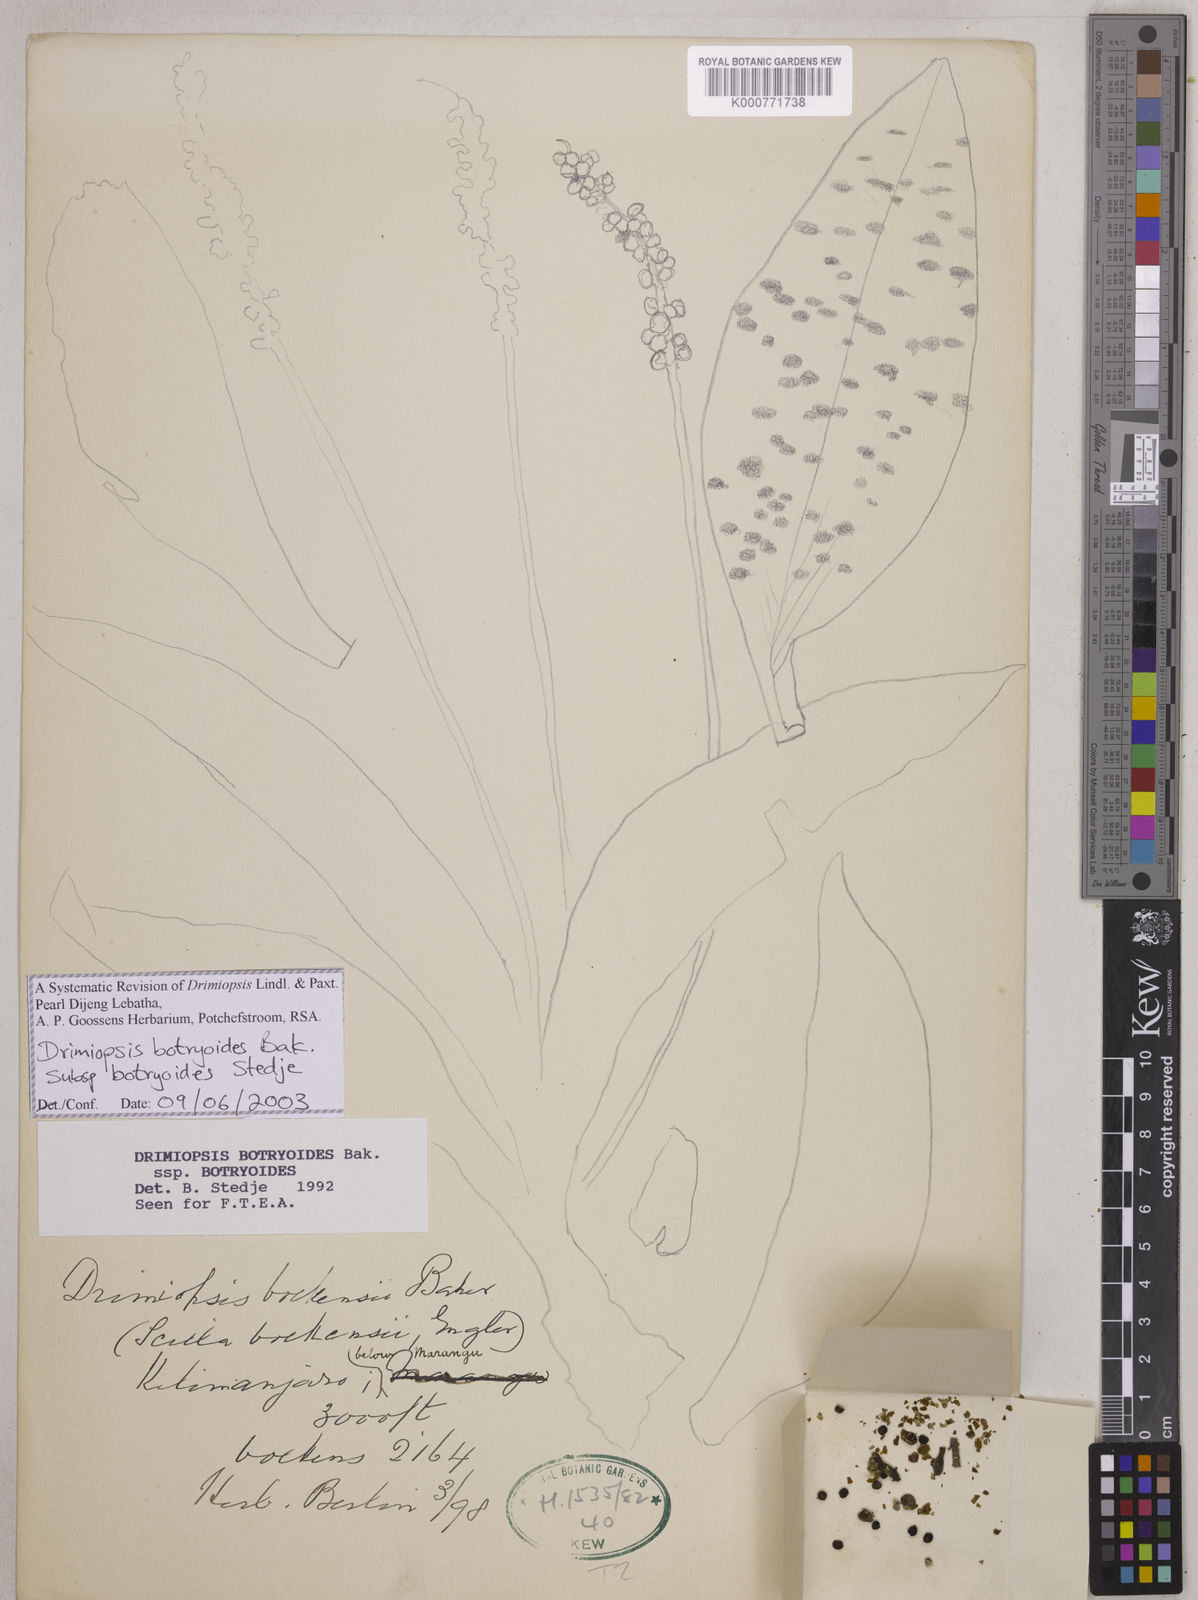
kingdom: Plantae
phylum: Tracheophyta
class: Liliopsida
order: Asparagales
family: Asparagaceae
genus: Drimiopsis
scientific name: Drimiopsis botryoides
